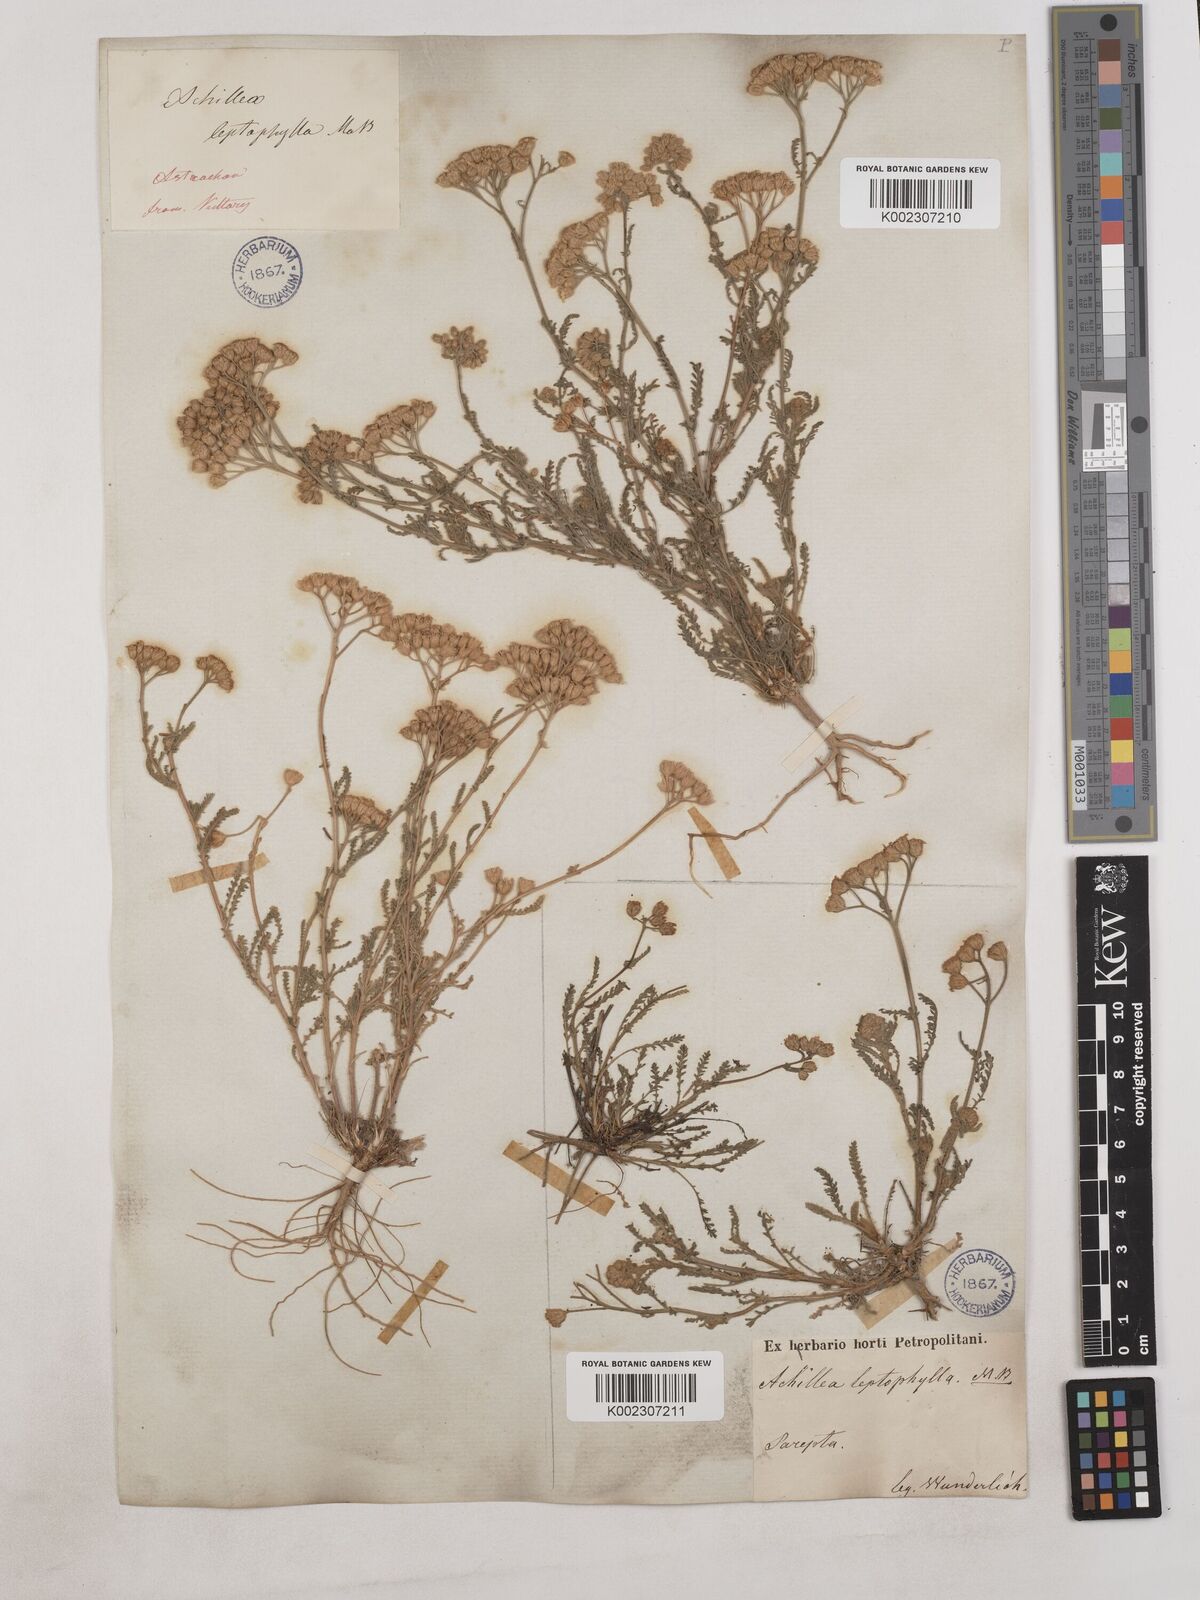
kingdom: Plantae
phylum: Tracheophyta
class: Magnoliopsida
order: Asterales
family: Asteraceae
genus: Achillea
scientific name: Achillea leptophylla
